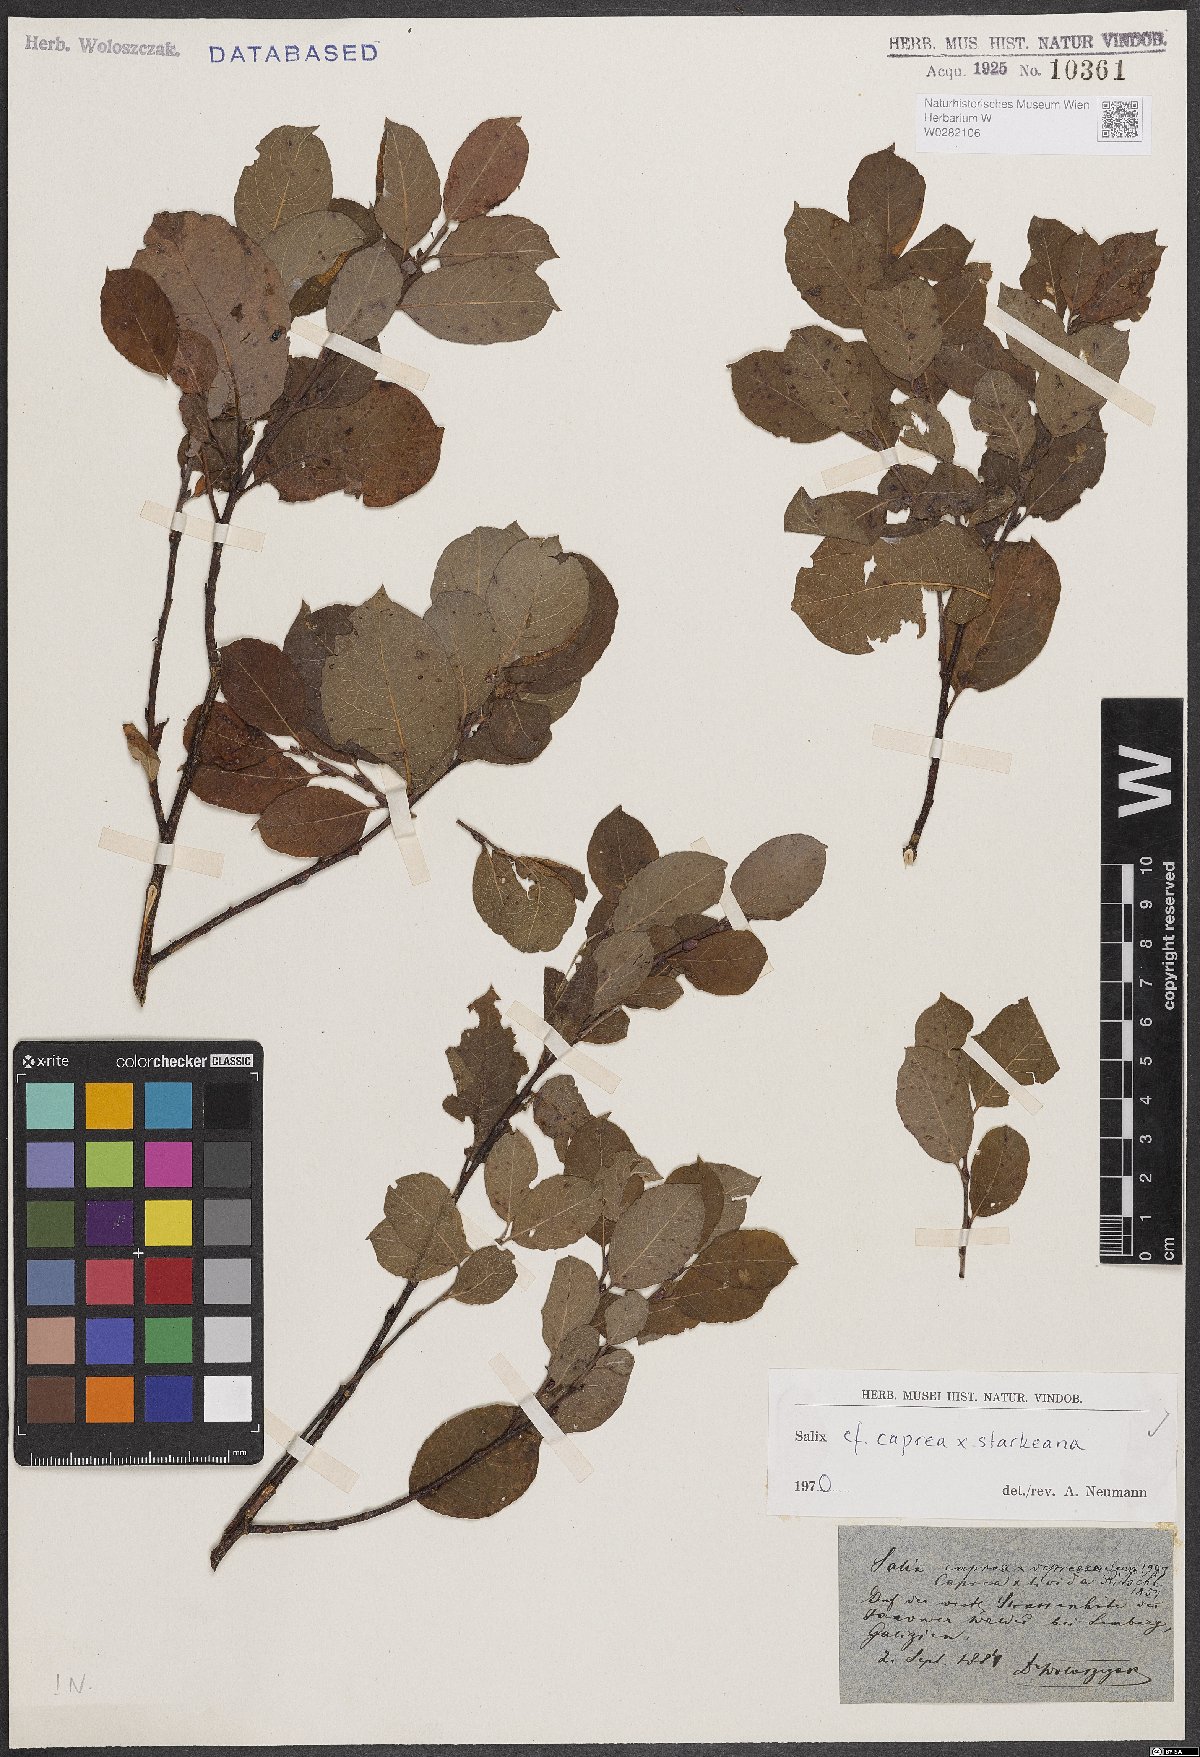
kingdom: Plantae
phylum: Tracheophyta
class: Magnoliopsida
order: Malpighiales
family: Salicaceae
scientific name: Salicaceae
